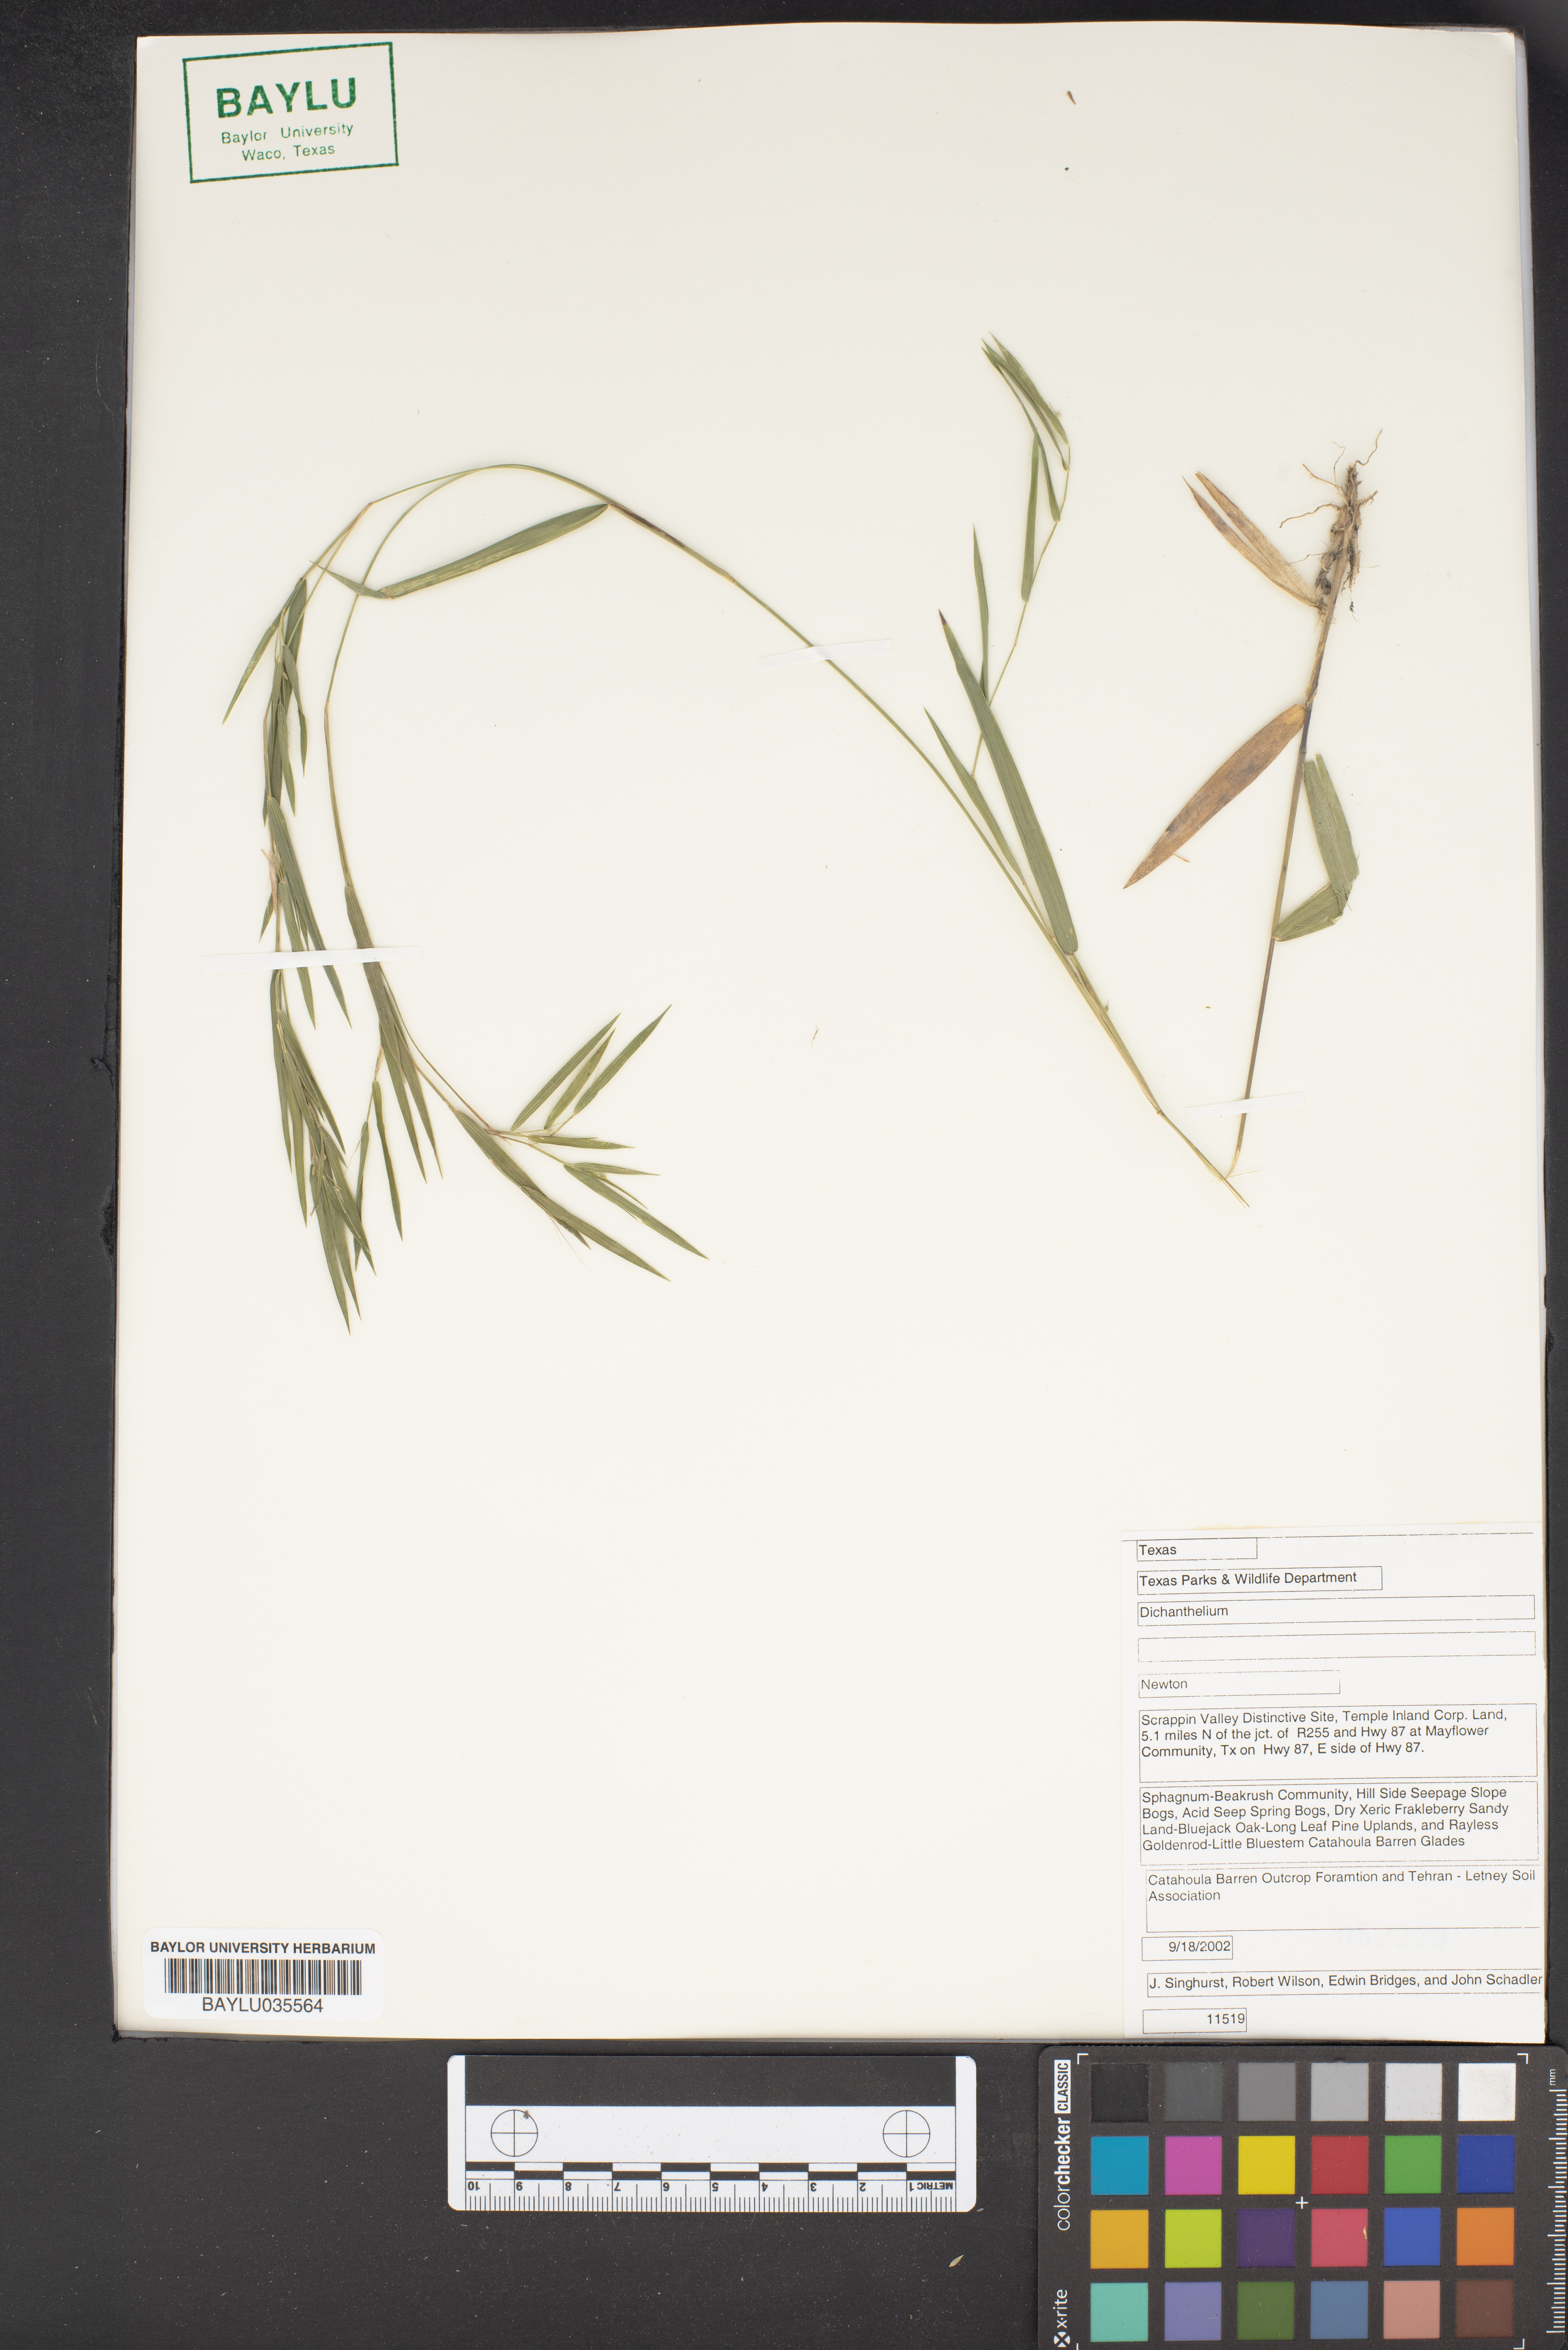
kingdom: Plantae
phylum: Tracheophyta
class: Liliopsida
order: Poales
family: Poaceae
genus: Dichanthelium
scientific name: Dichanthelium
